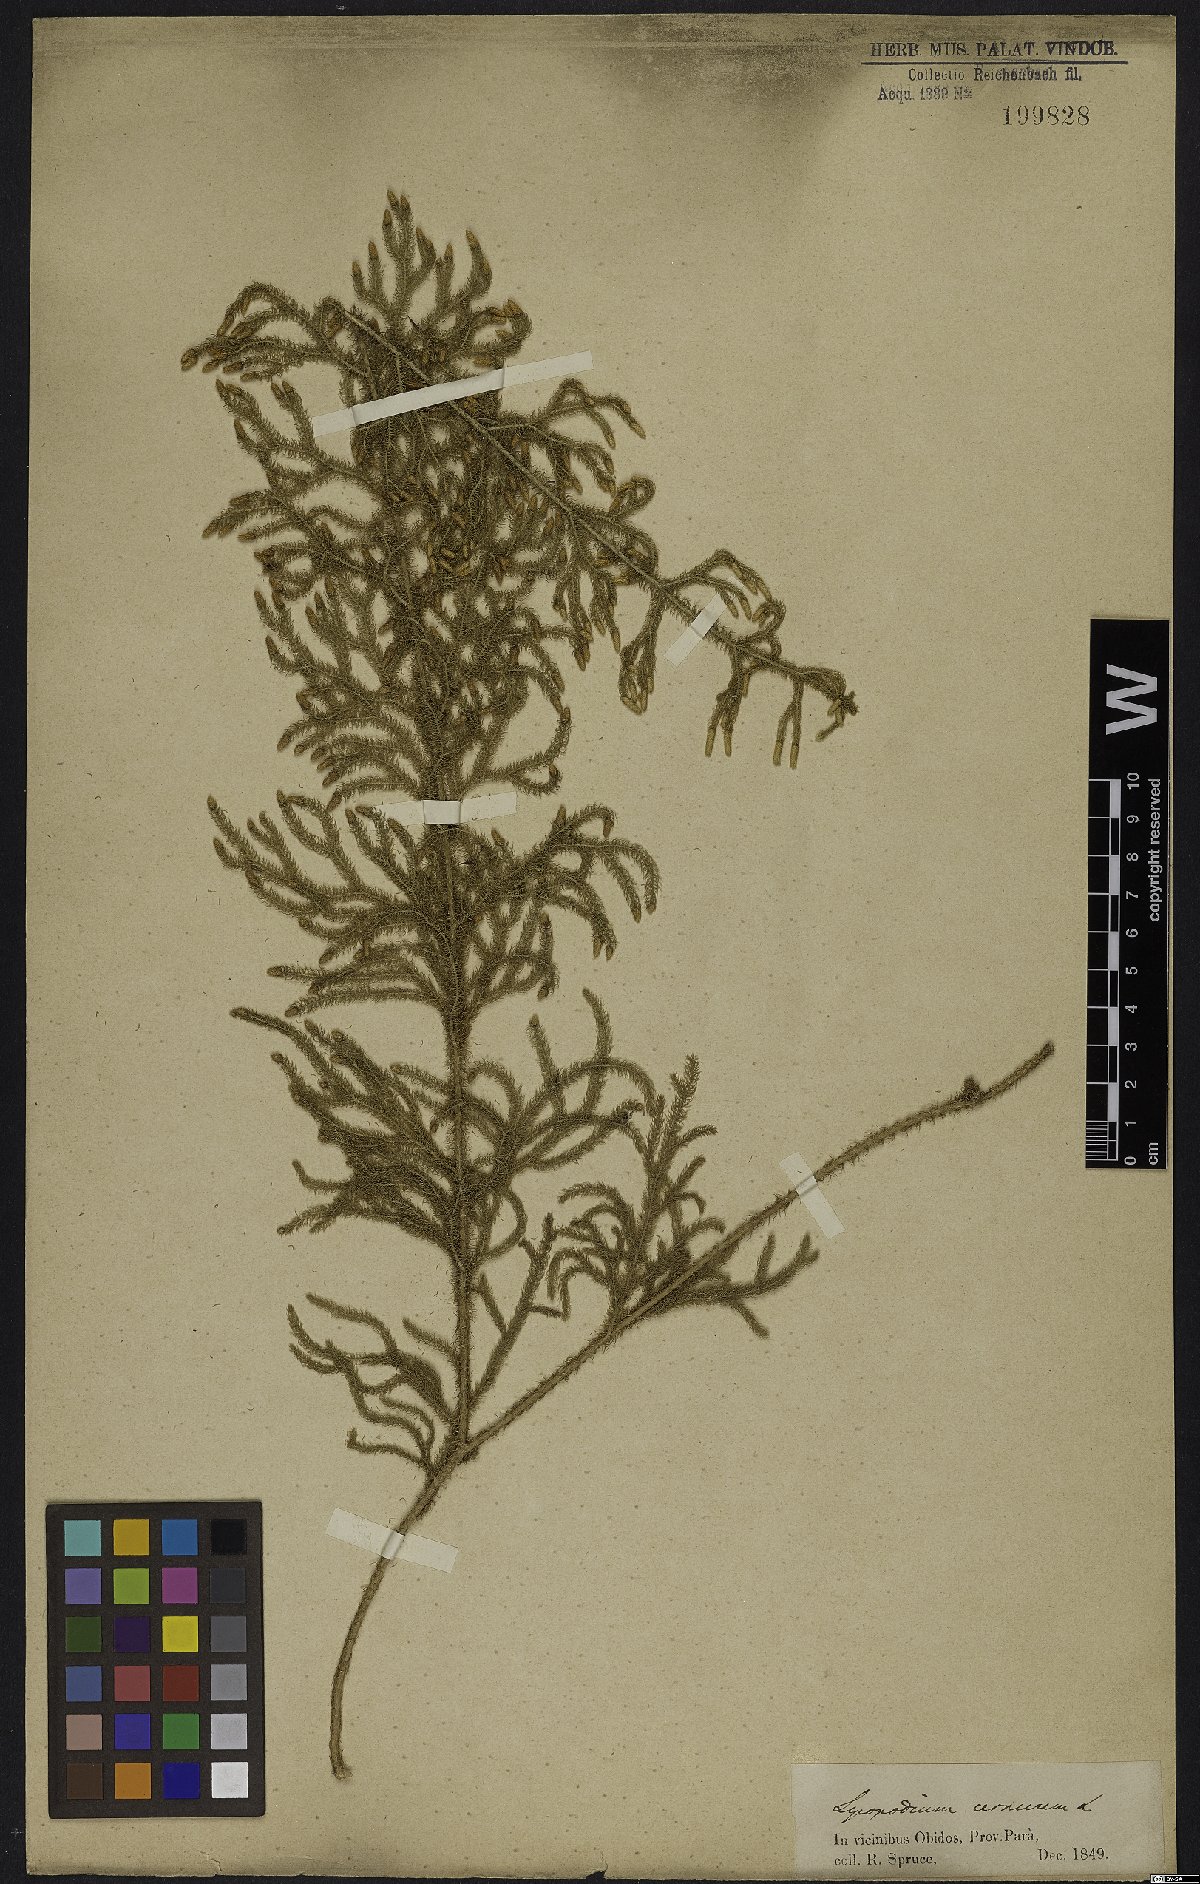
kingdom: Plantae
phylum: Tracheophyta
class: Lycopodiopsida
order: Lycopodiales
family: Lycopodiaceae
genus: Palhinhaea
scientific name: Palhinhaea cernua
